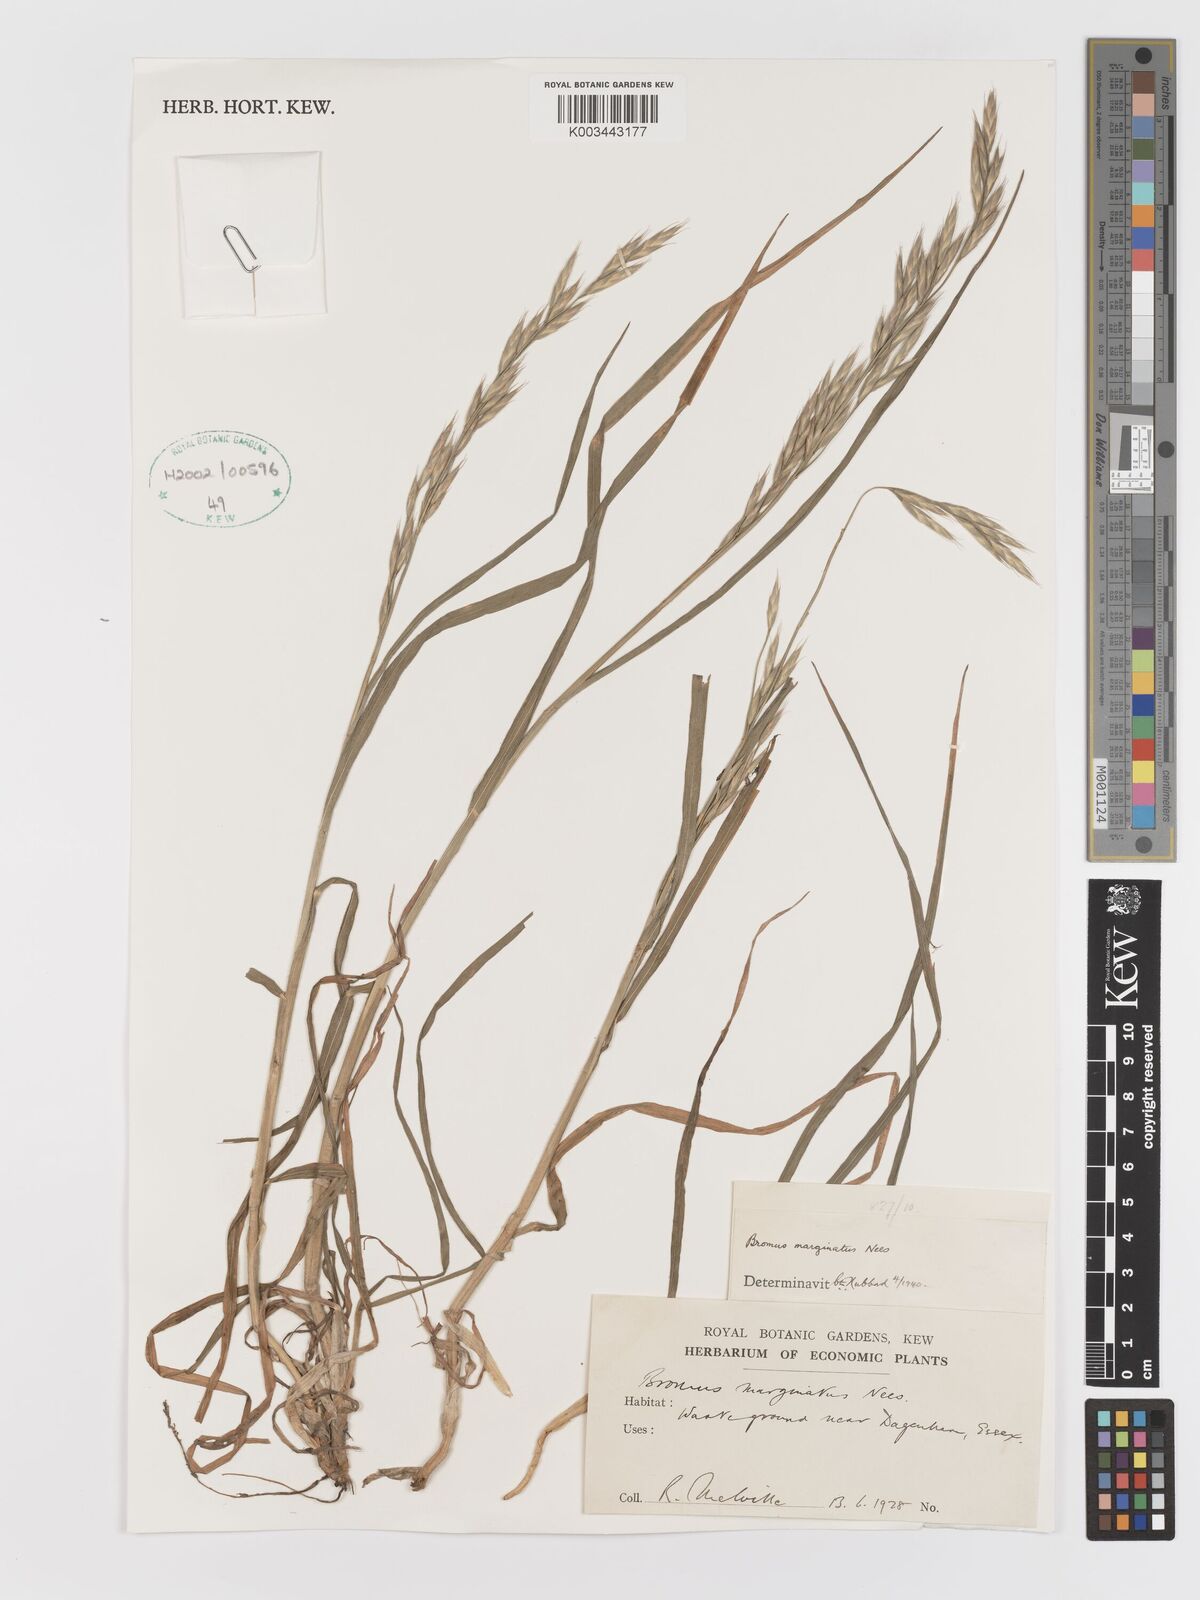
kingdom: Plantae
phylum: Tracheophyta
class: Liliopsida
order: Poales
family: Poaceae
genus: Bromus
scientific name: Bromus marginatus
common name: Western brome
